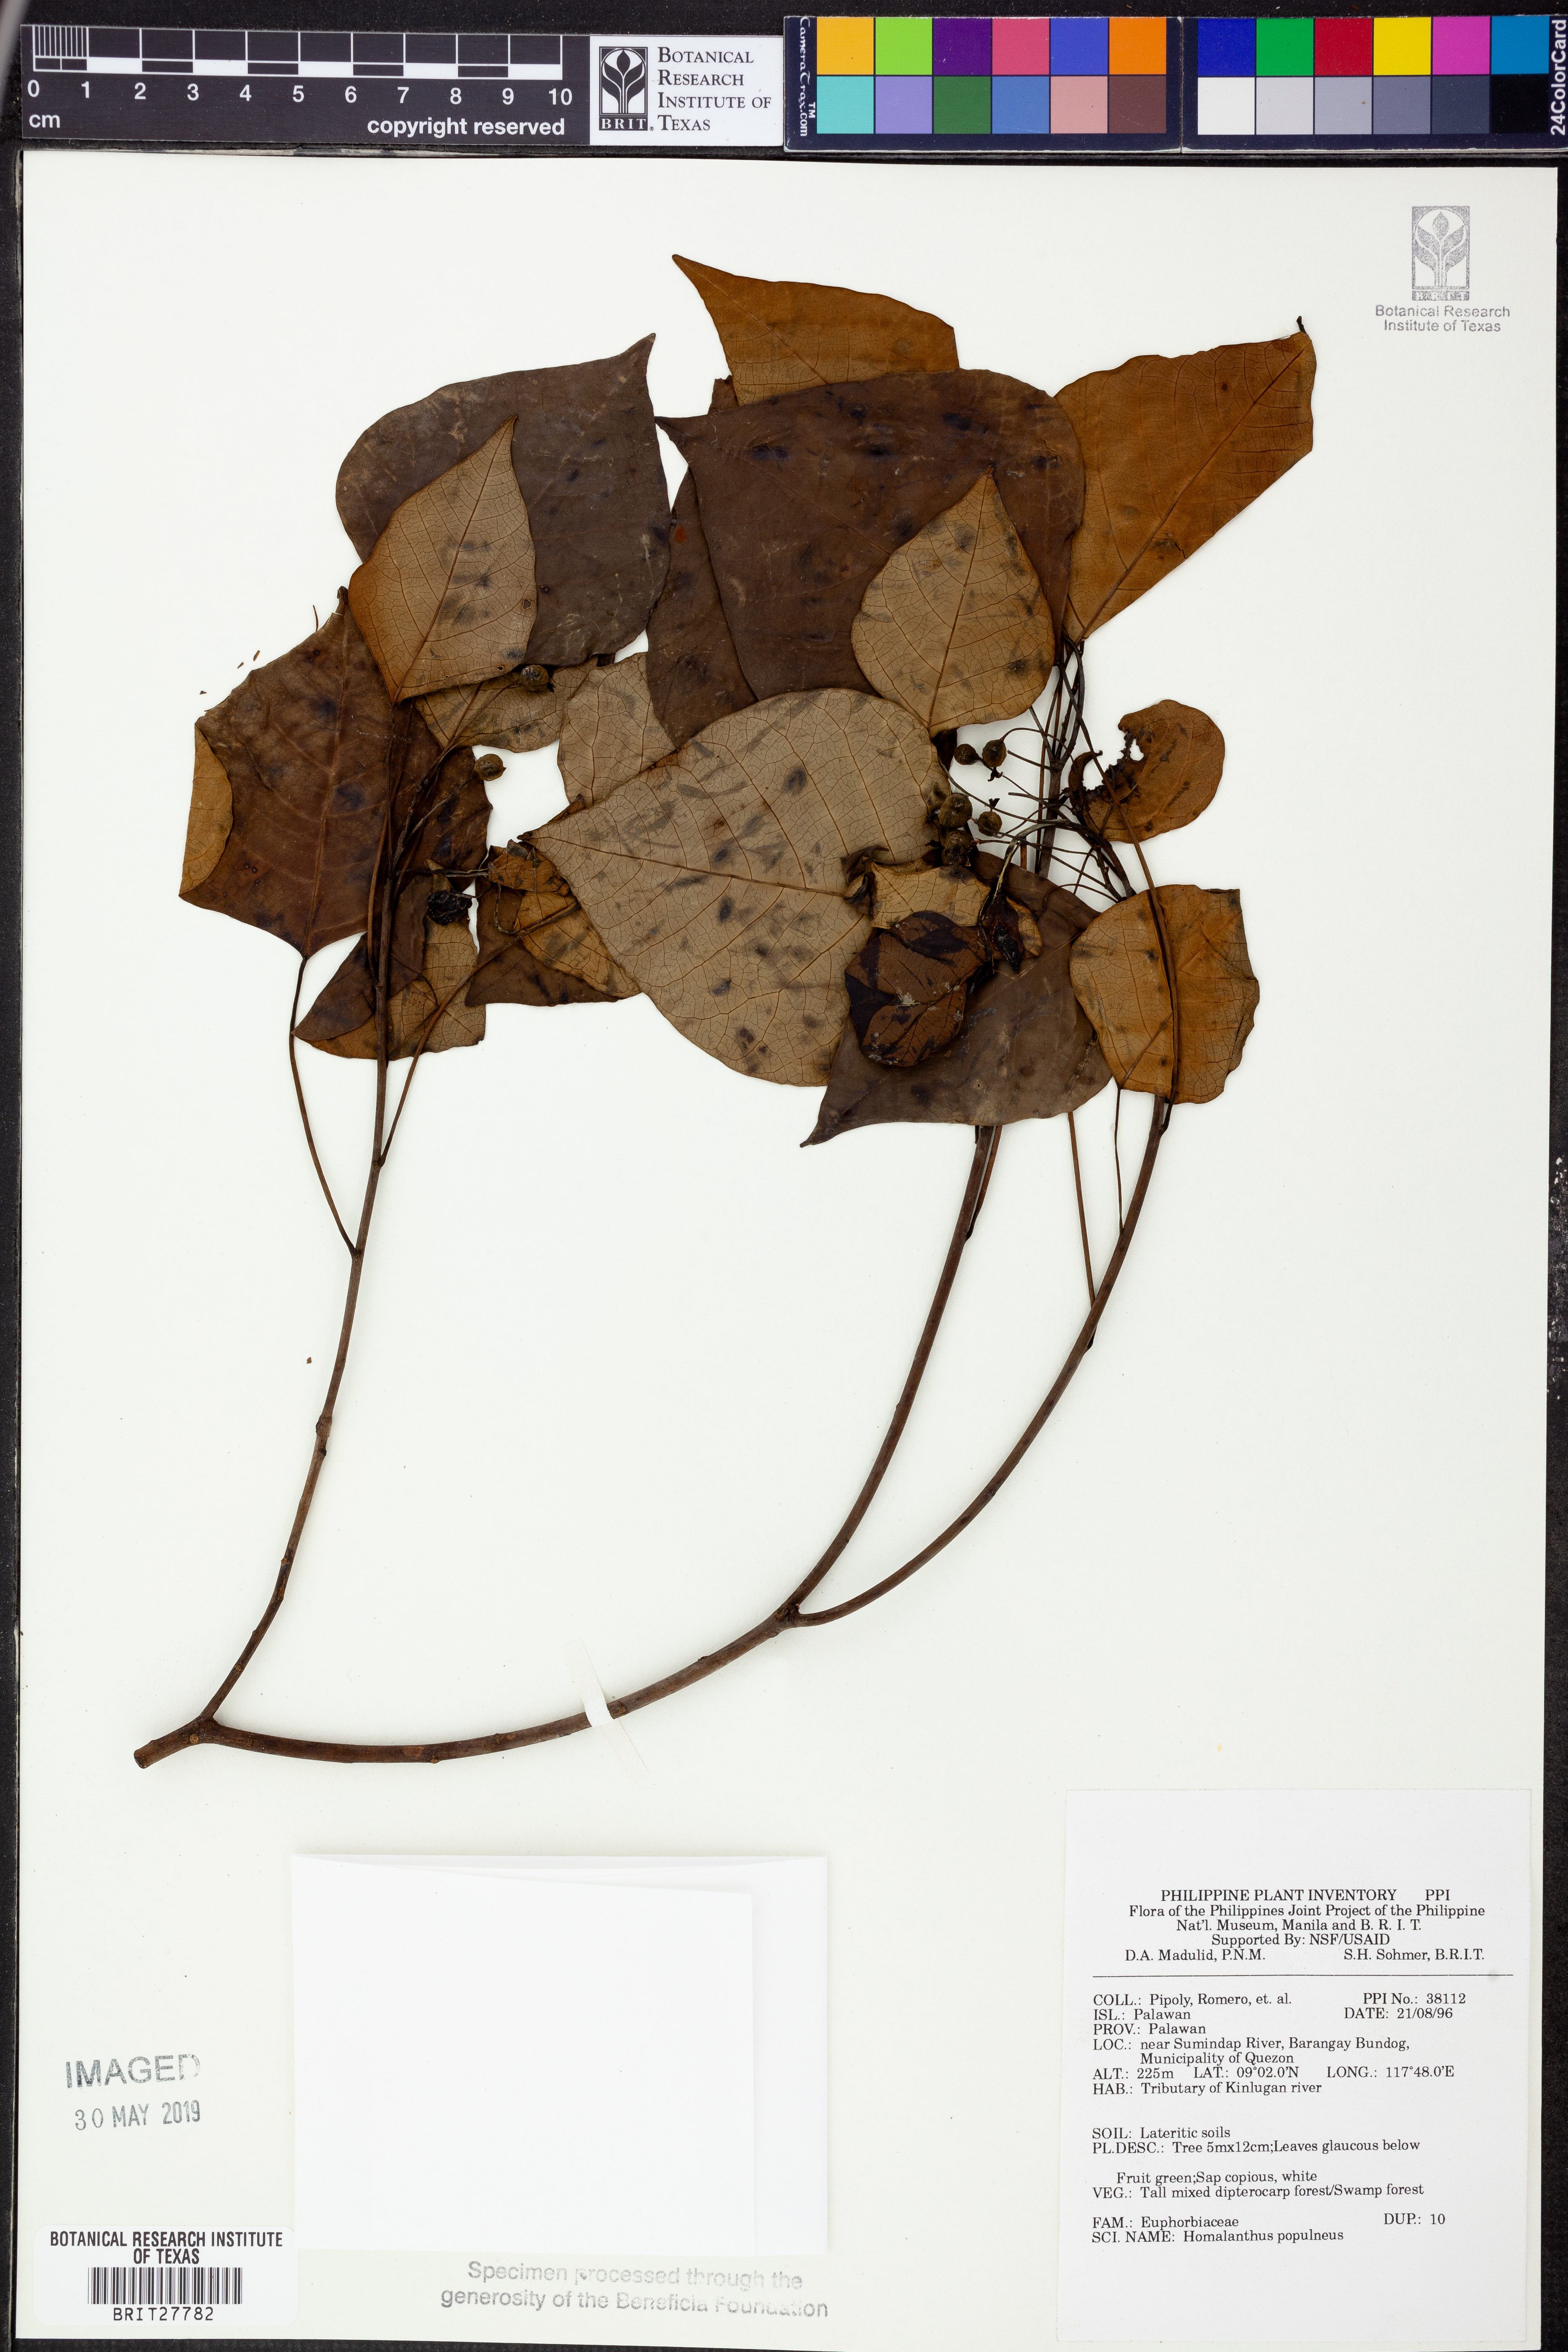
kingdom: Plantae
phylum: Tracheophyta
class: Magnoliopsida
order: Malpighiales
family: Euphorbiaceae
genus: Homalanthus
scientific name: Homalanthus populneus
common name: Spurge
